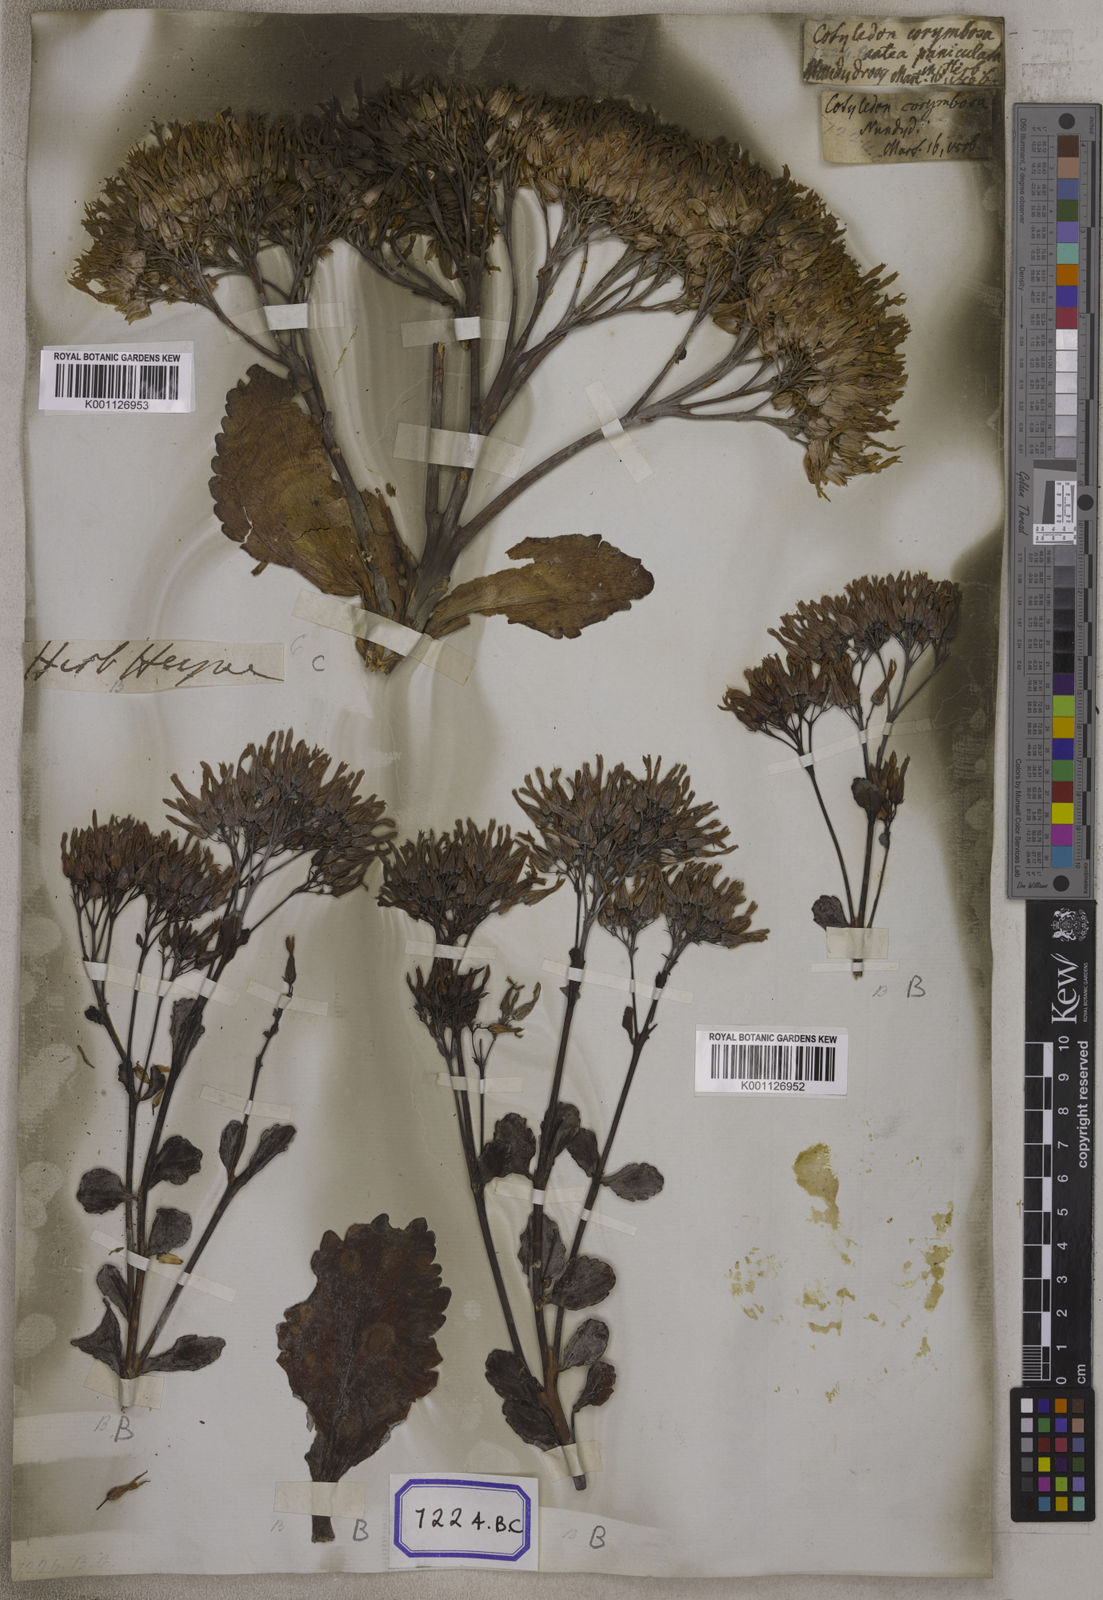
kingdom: Plantae
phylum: Tracheophyta
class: Magnoliopsida
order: Saxifragales
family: Crassulaceae
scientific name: Crassulaceae
